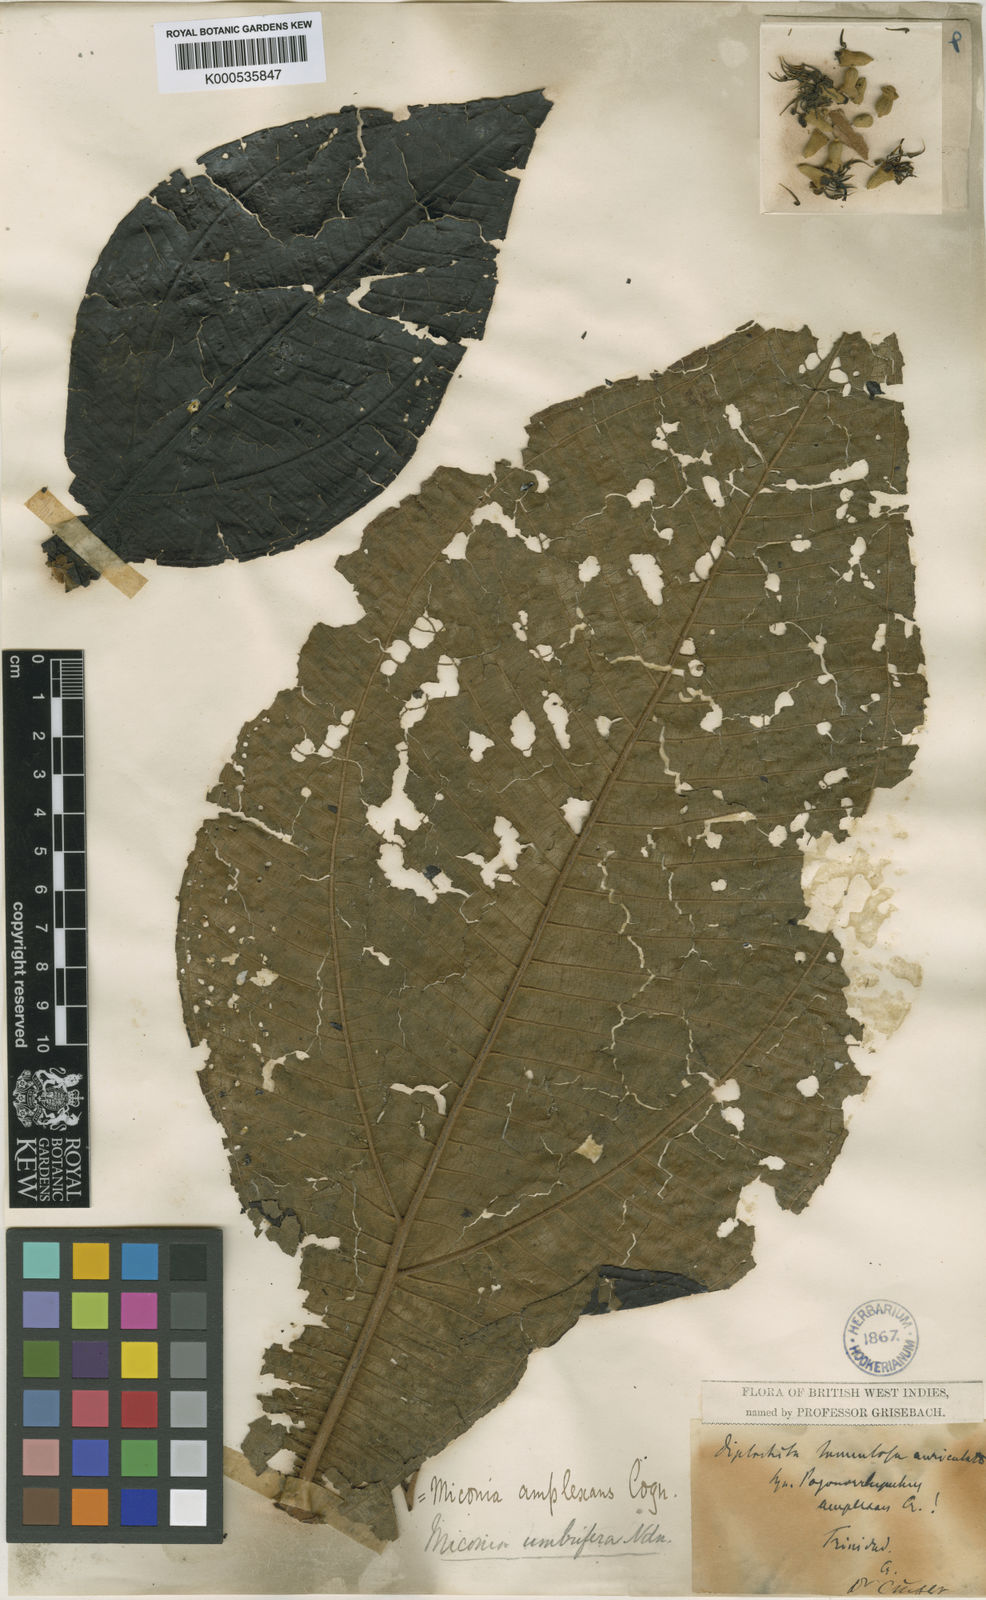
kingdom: Plantae
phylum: Tracheophyta
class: Magnoliopsida
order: Myrtales
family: Melastomataceae
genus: Miconia
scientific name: Miconia tomentosa
